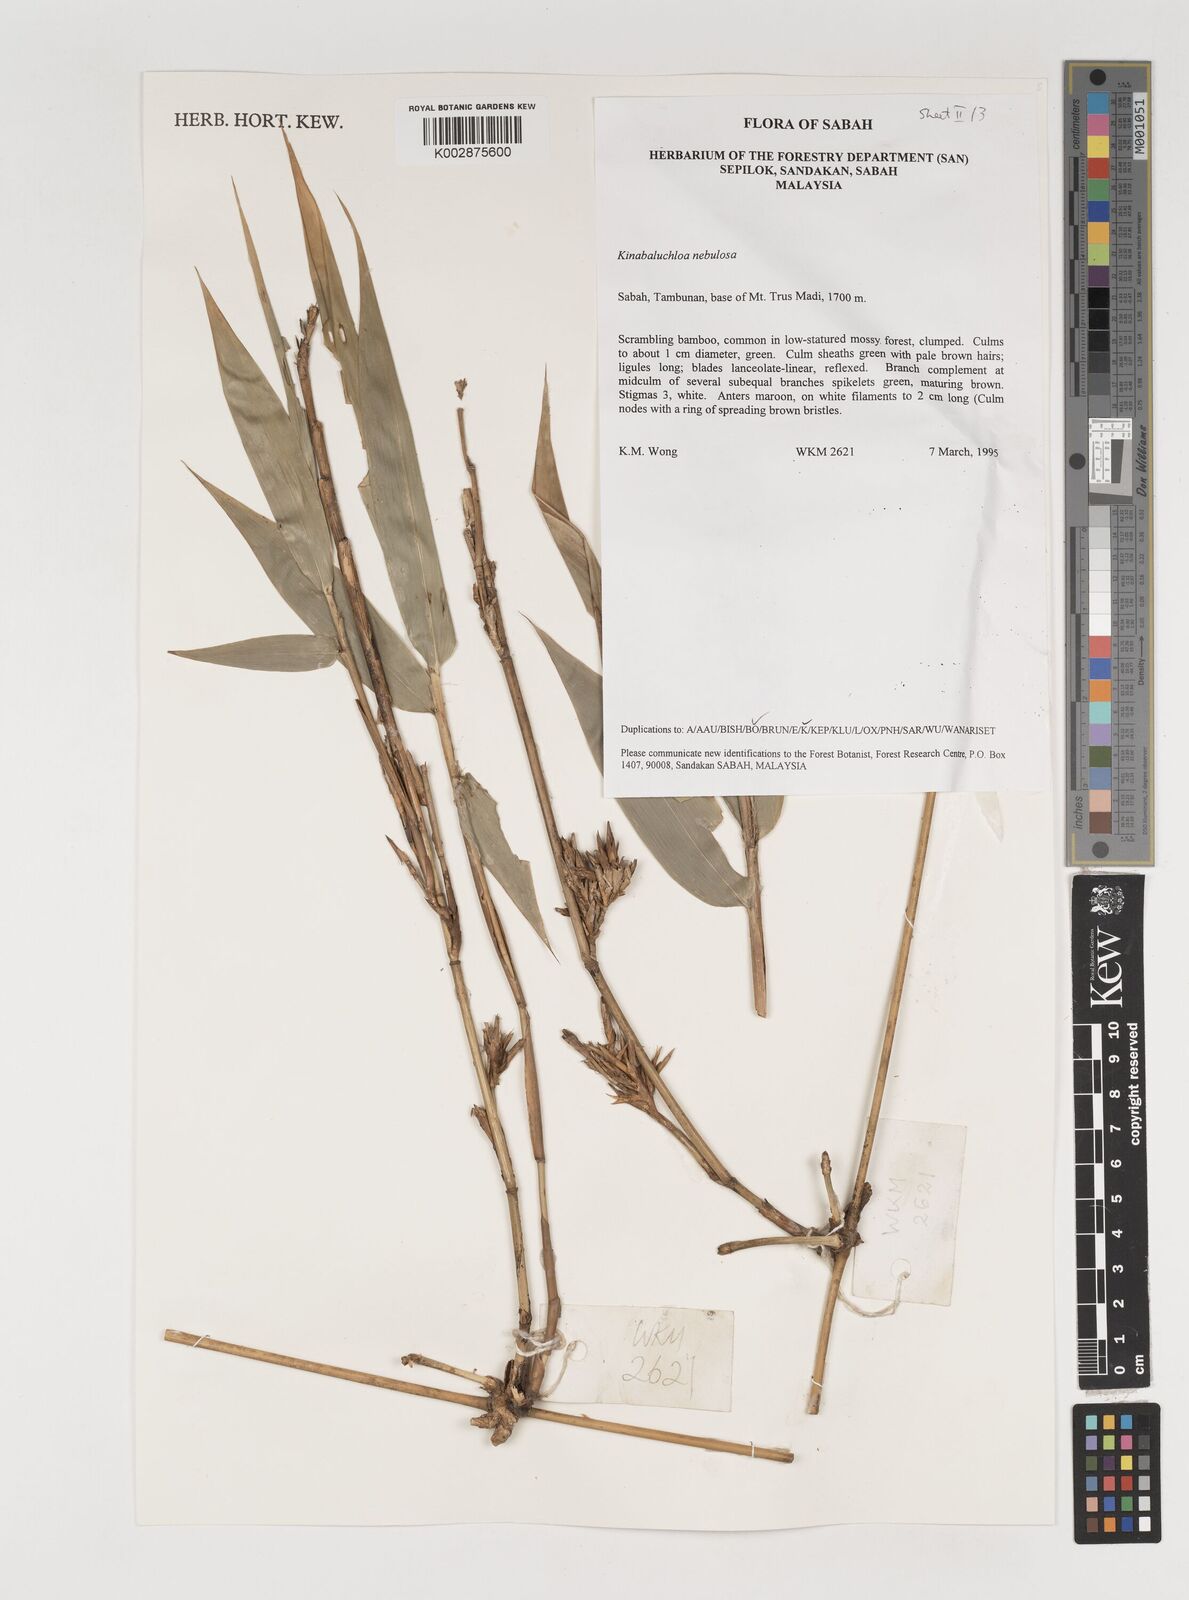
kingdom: Plantae
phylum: Tracheophyta
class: Liliopsida
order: Poales
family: Poaceae
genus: Kinabaluchloa
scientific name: Kinabaluchloa
